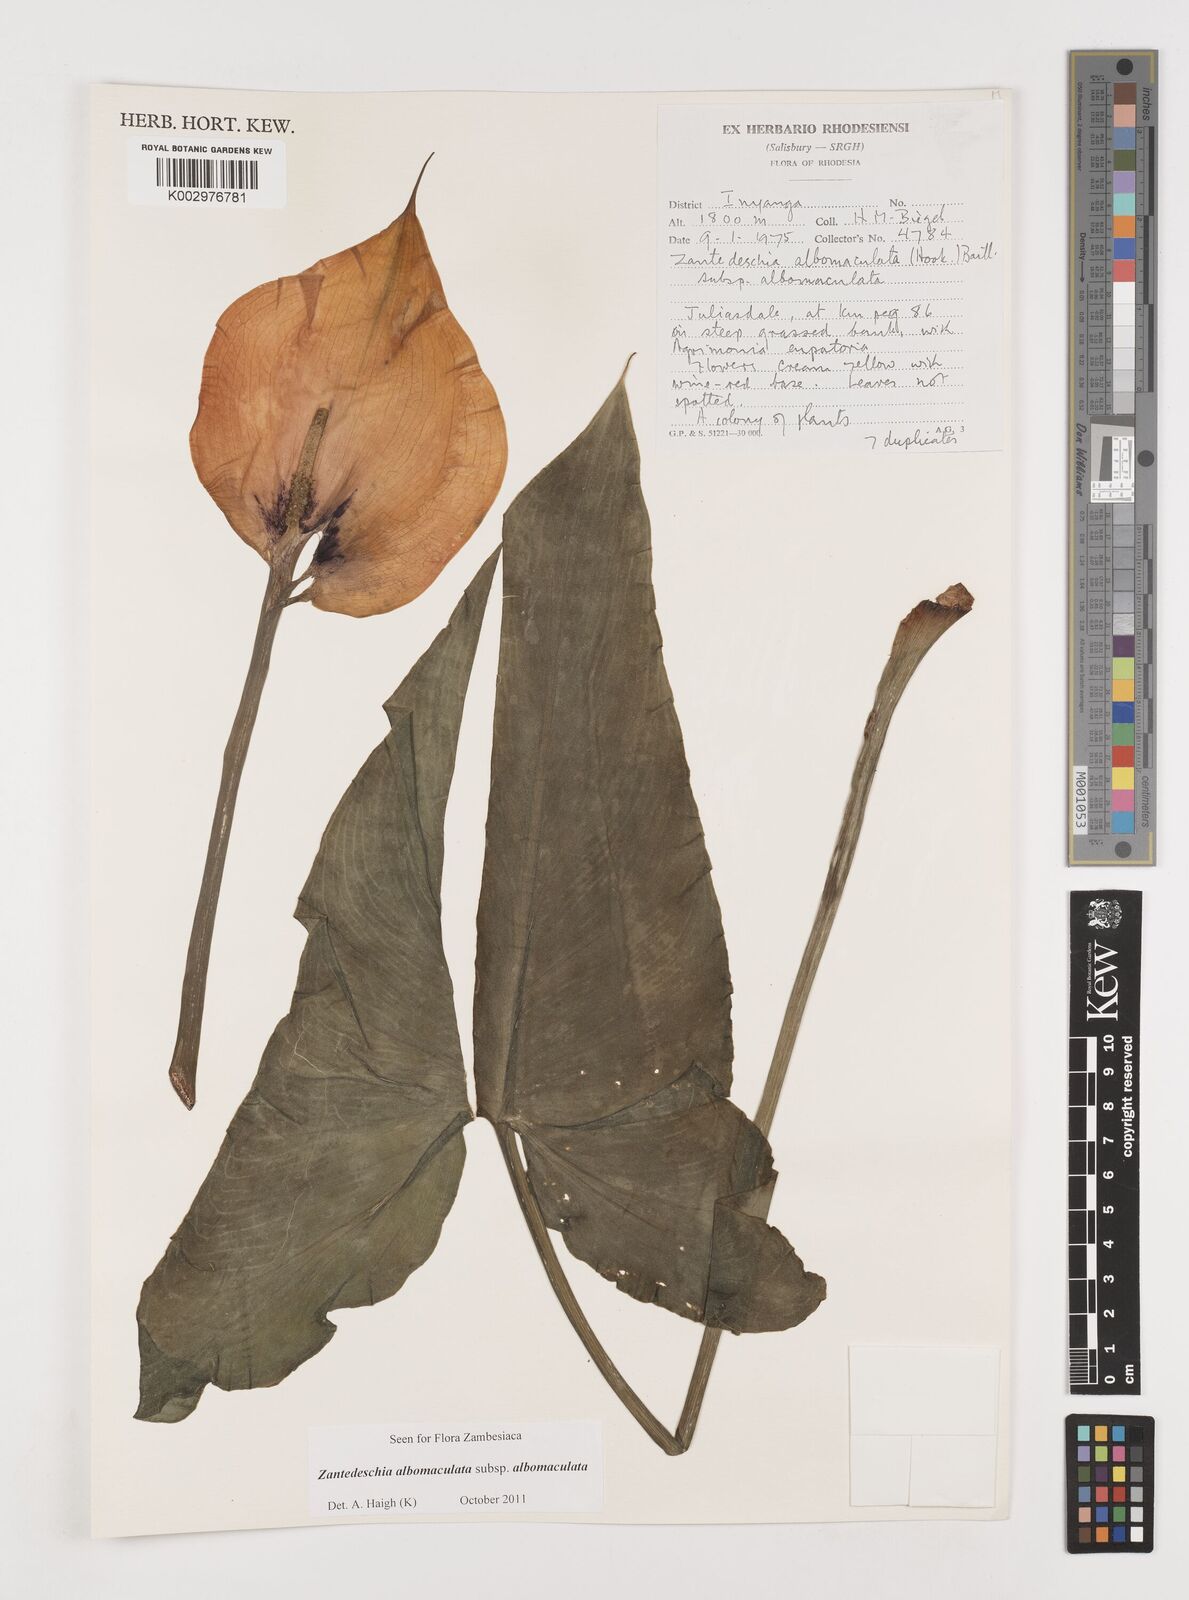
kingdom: Plantae
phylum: Tracheophyta
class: Liliopsida
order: Alismatales
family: Araceae
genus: Zantedeschia
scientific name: Zantedeschia albomaculata
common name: Spotted calla lily
